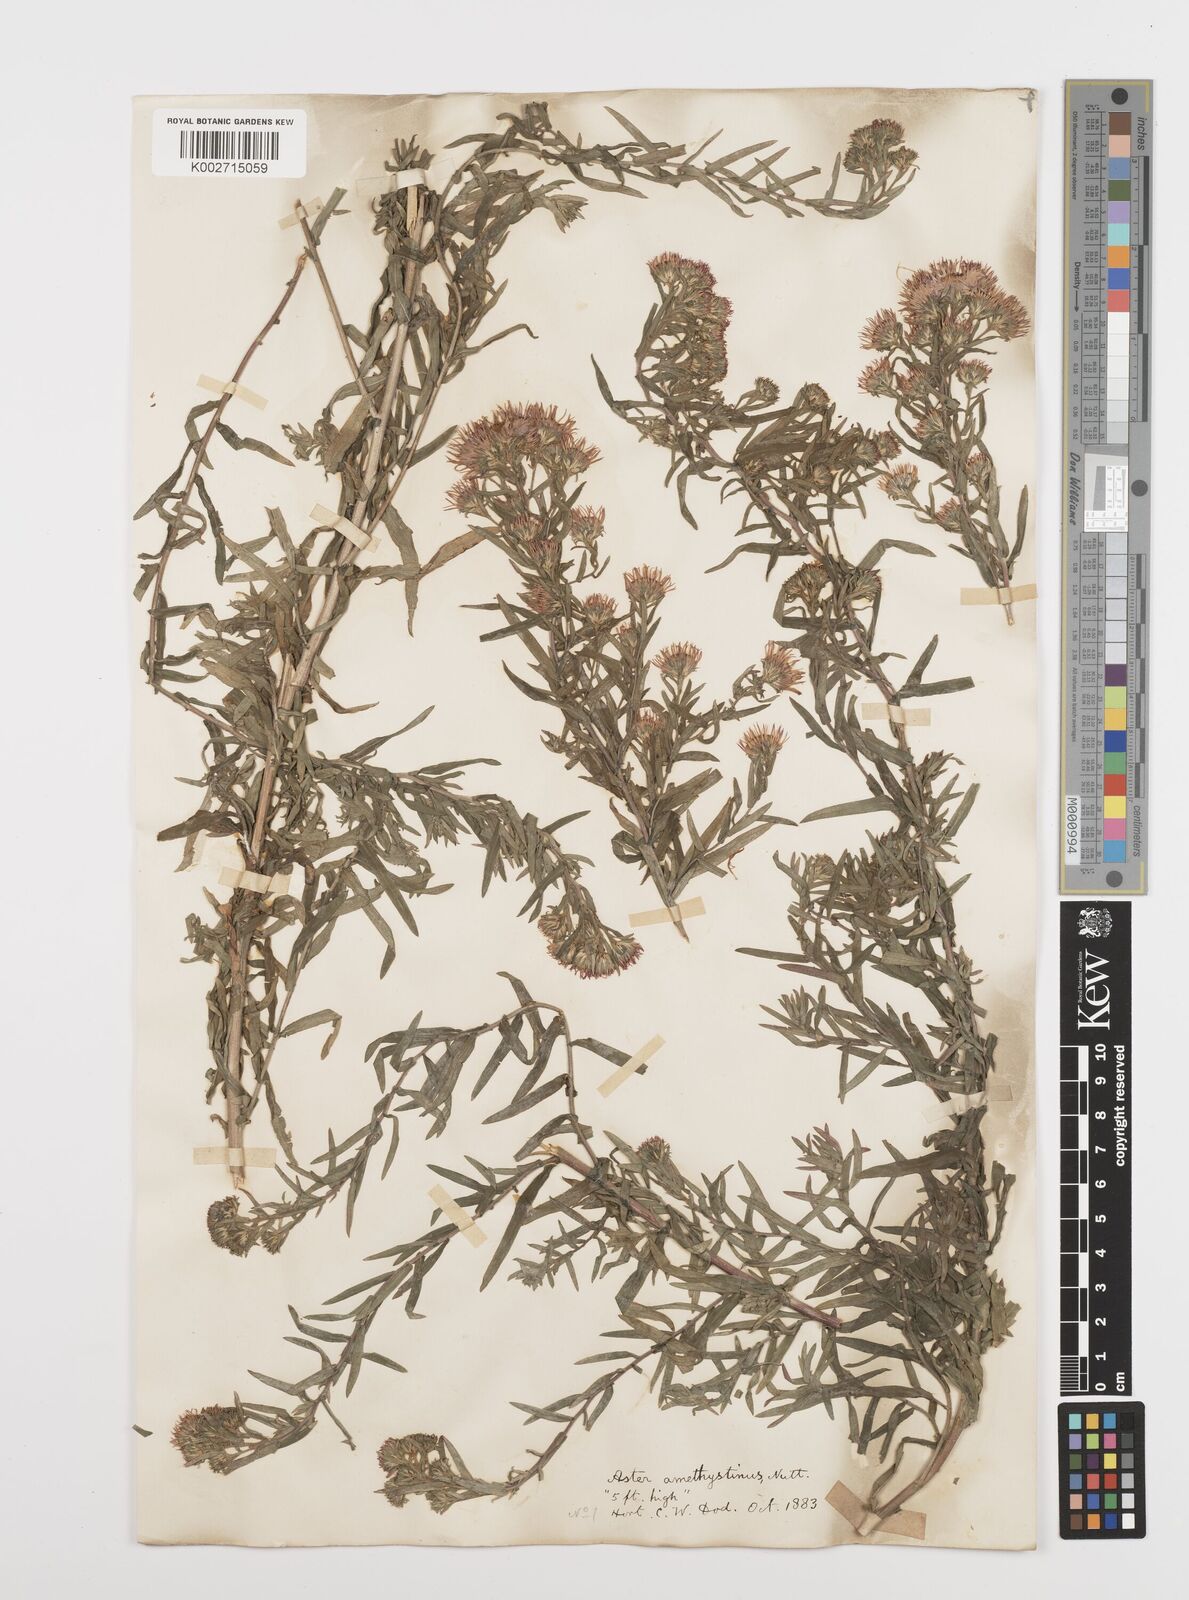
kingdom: Plantae
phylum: Tracheophyta
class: Magnoliopsida
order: Asterales
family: Asteraceae
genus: Symphyotrichum
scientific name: Symphyotrichum amethystinum
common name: Amethyst aster
